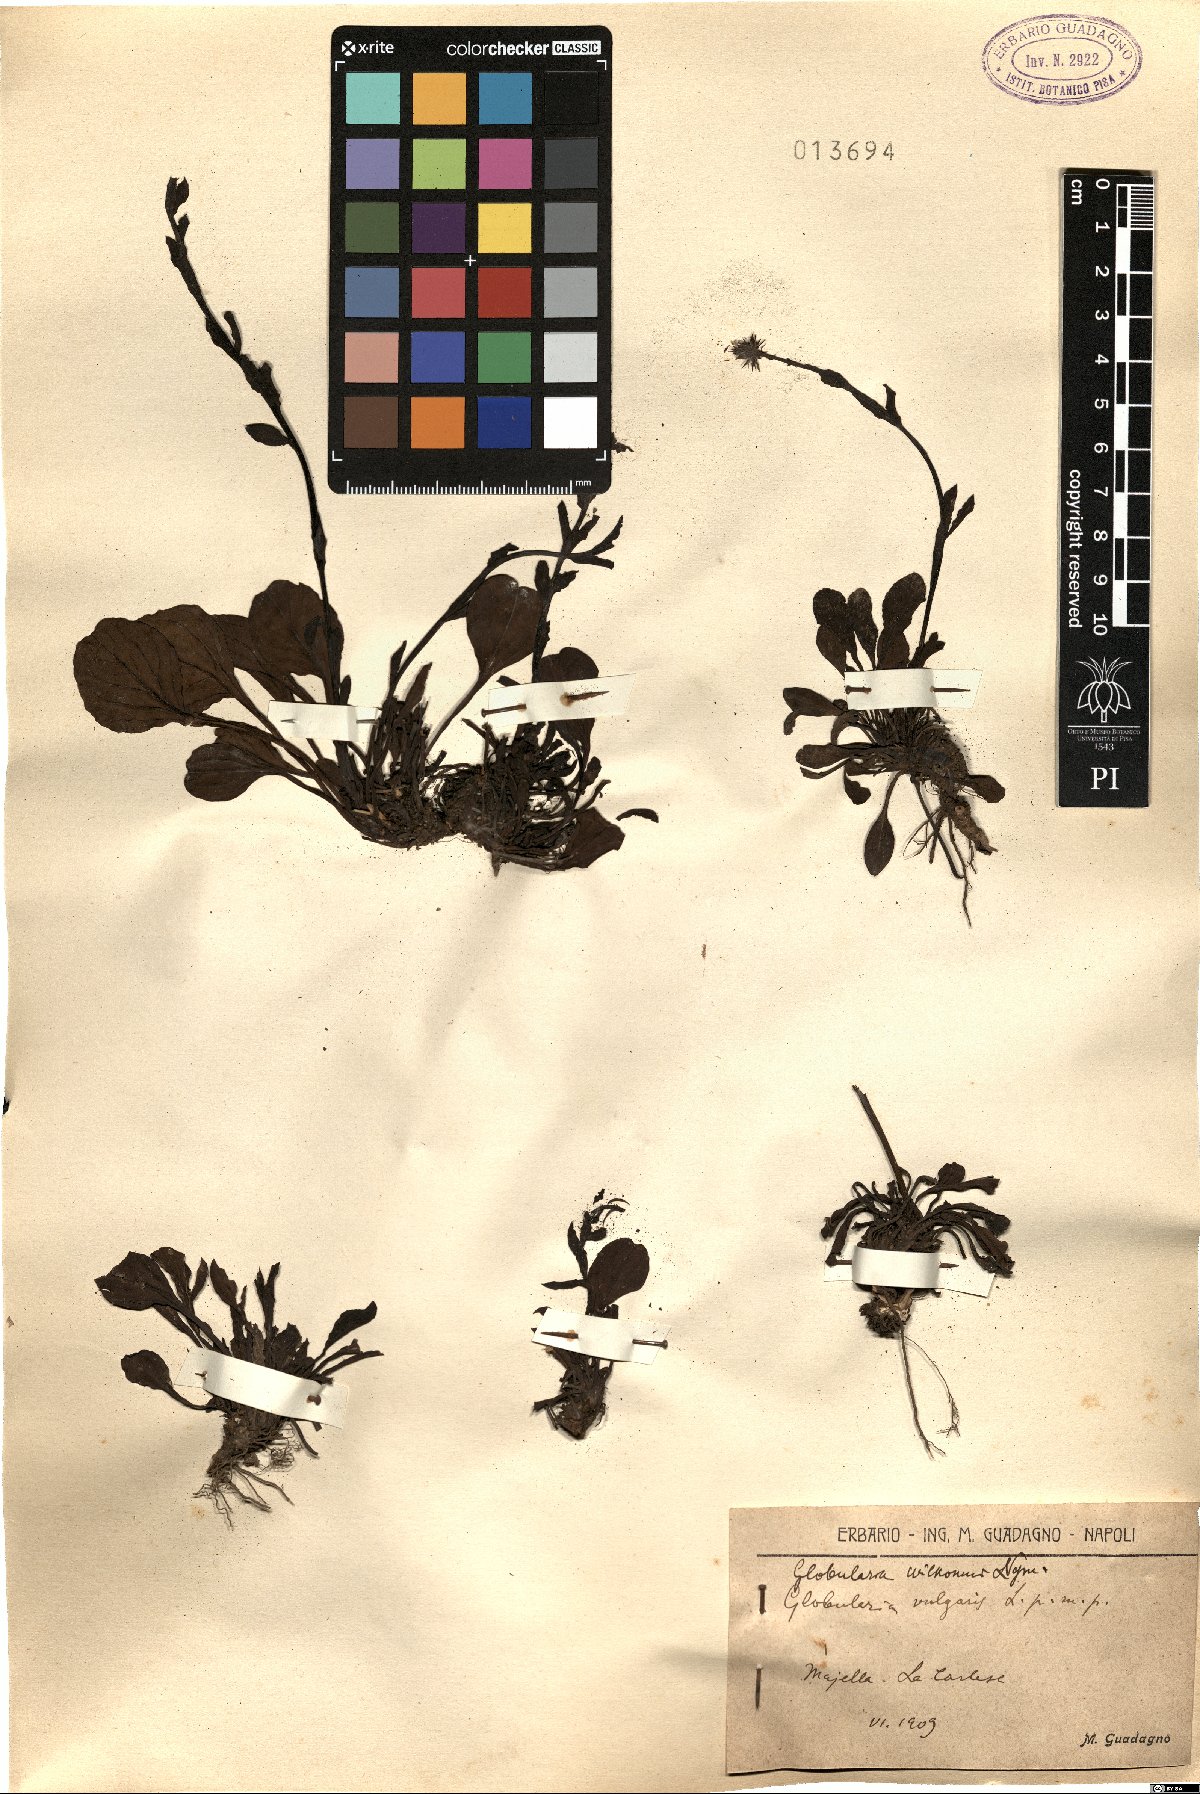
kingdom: Plantae
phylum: Tracheophyta
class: Magnoliopsida
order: Lamiales
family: Plantaginaceae
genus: Globularia
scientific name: Globularia bisnagarica
